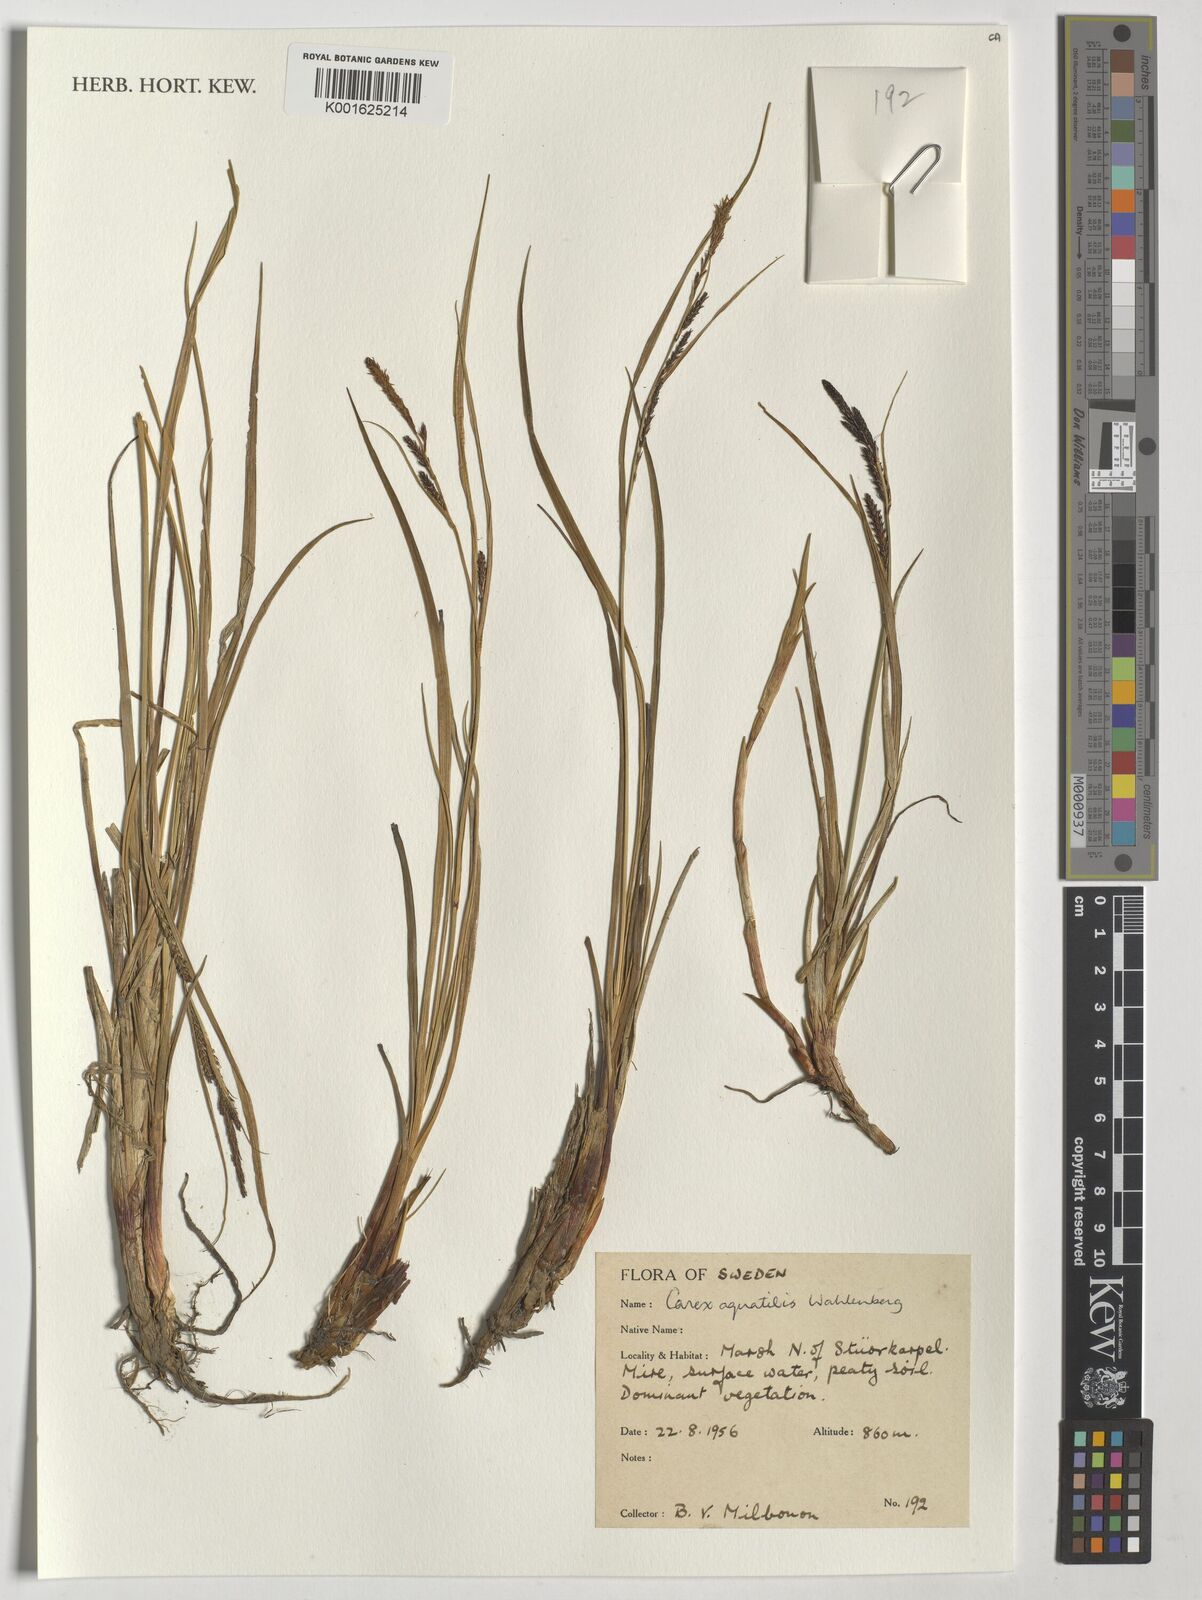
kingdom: Plantae
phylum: Tracheophyta
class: Liliopsida
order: Poales
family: Cyperaceae
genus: Carex
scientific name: Carex aquatilis
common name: Water sedge
